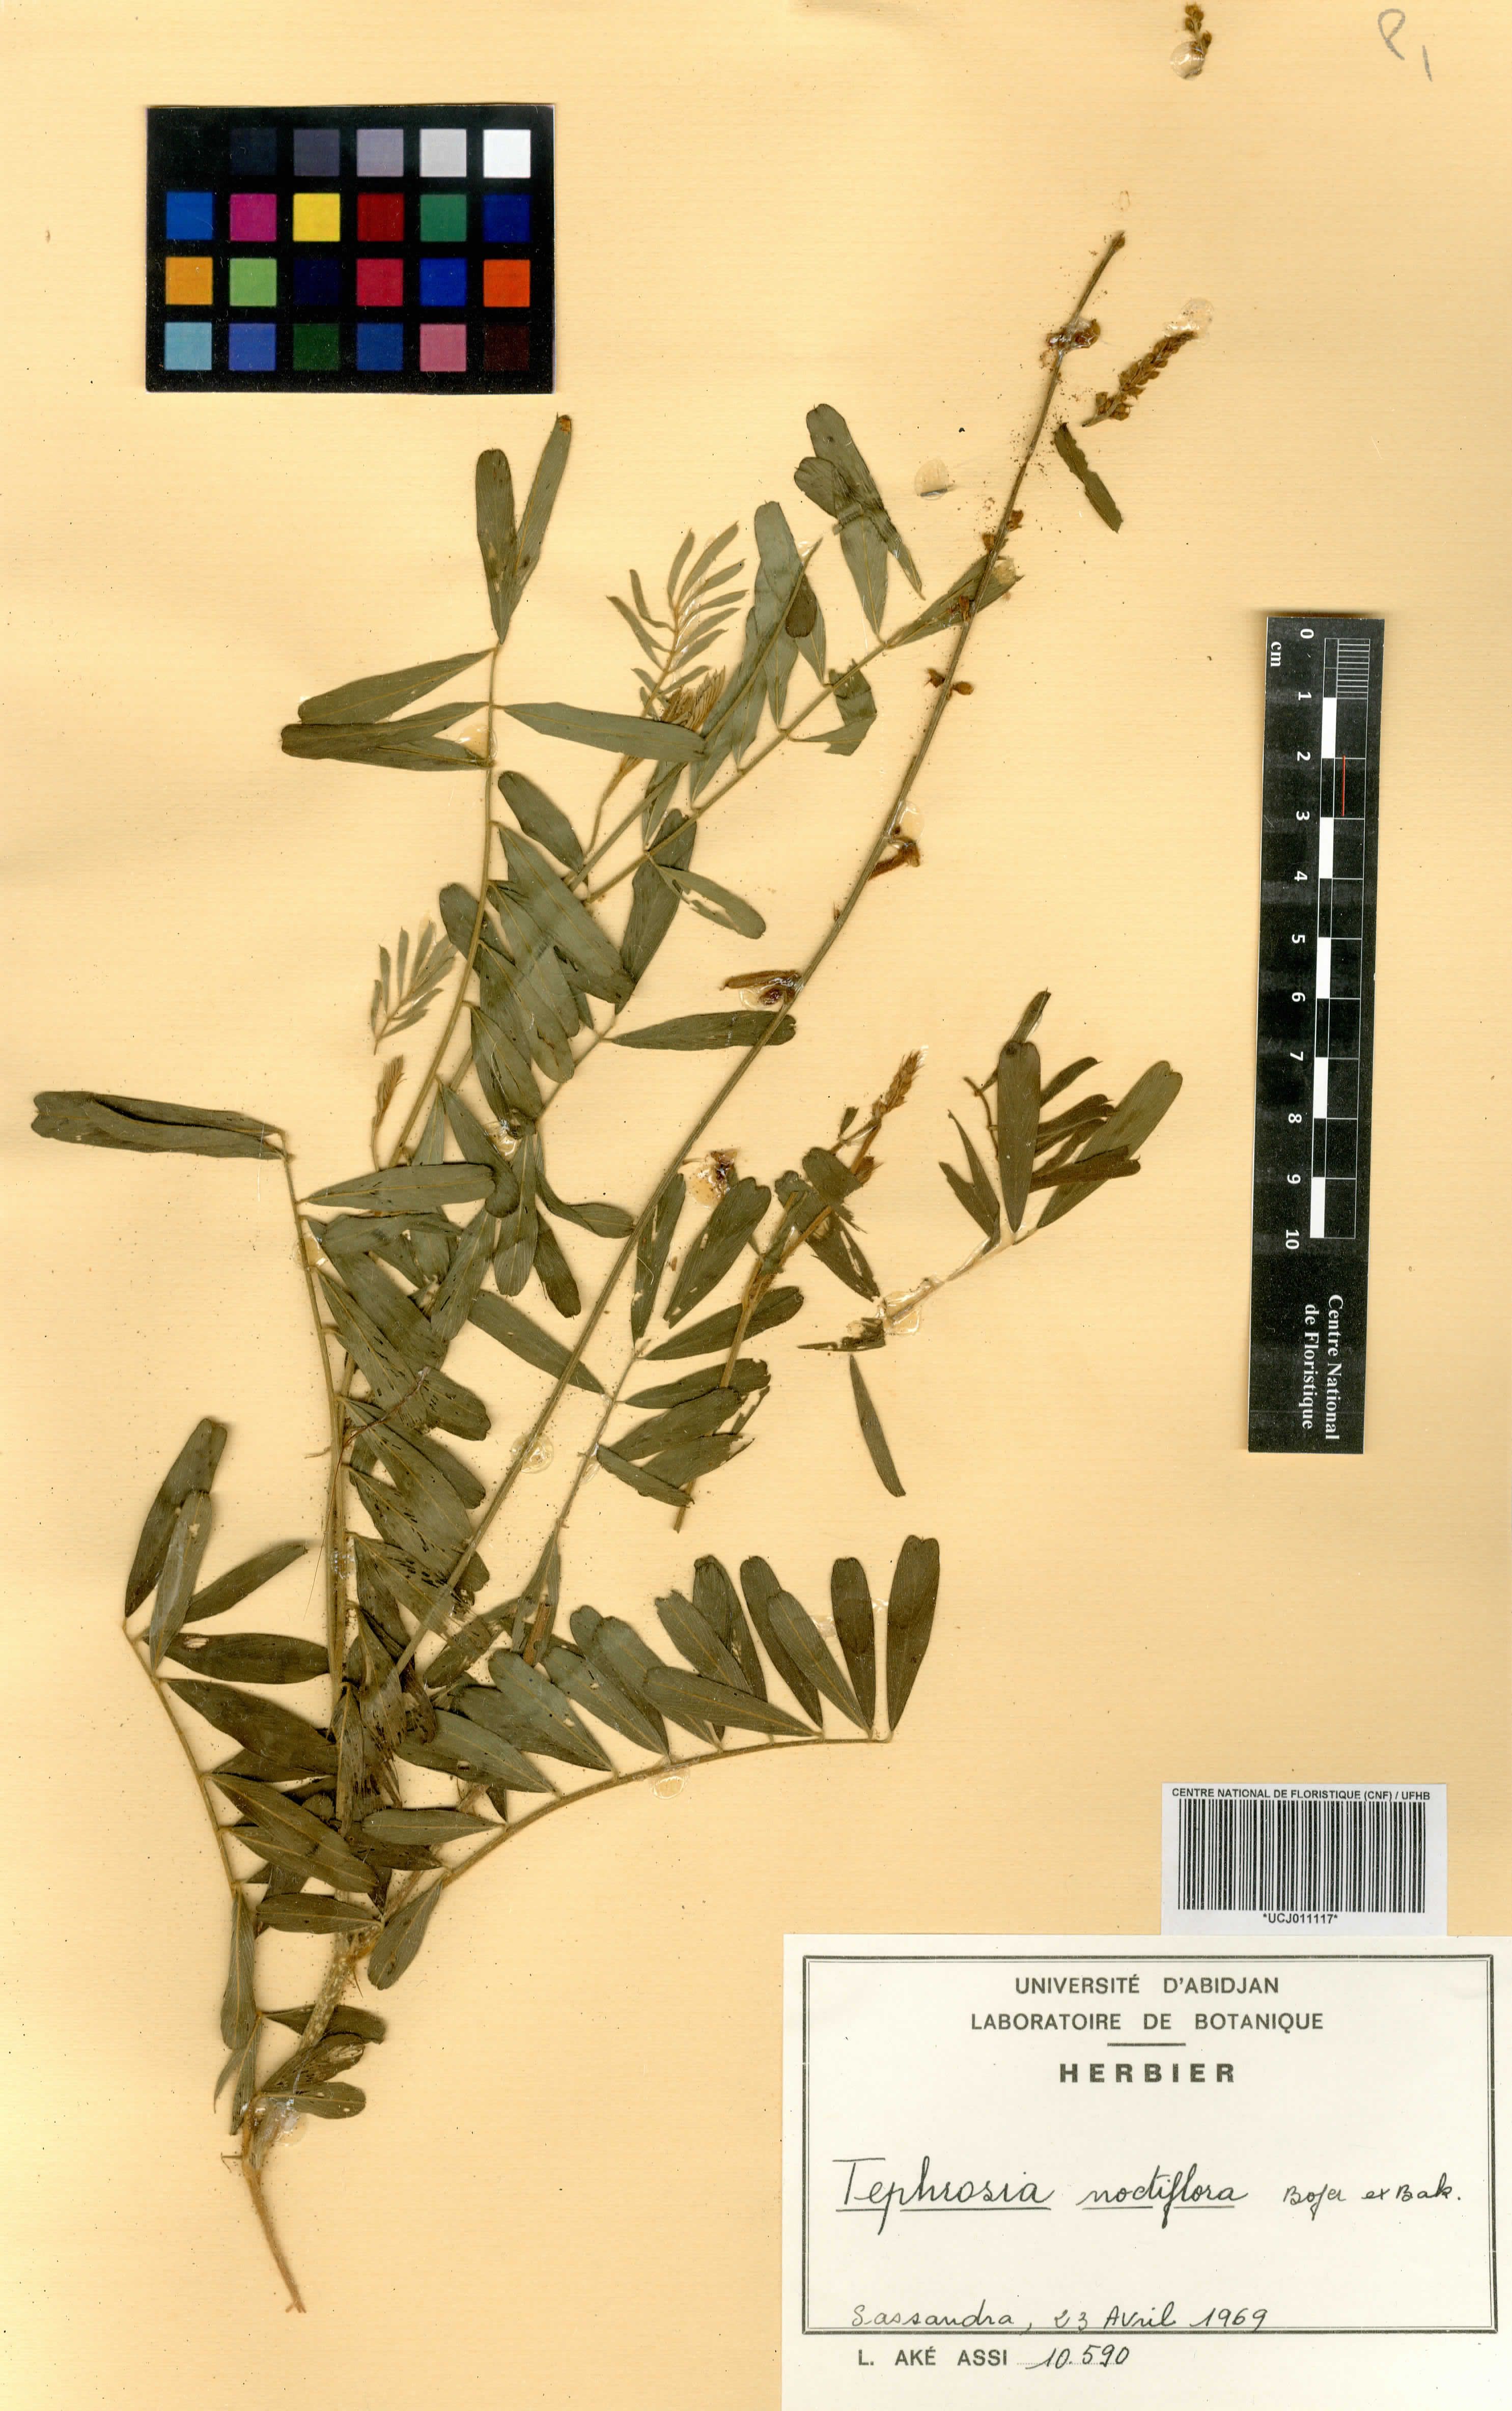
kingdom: Plantae
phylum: Tracheophyta
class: Magnoliopsida
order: Fabales
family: Fabaceae
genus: Tephrosia
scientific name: Tephrosia noctiflora
